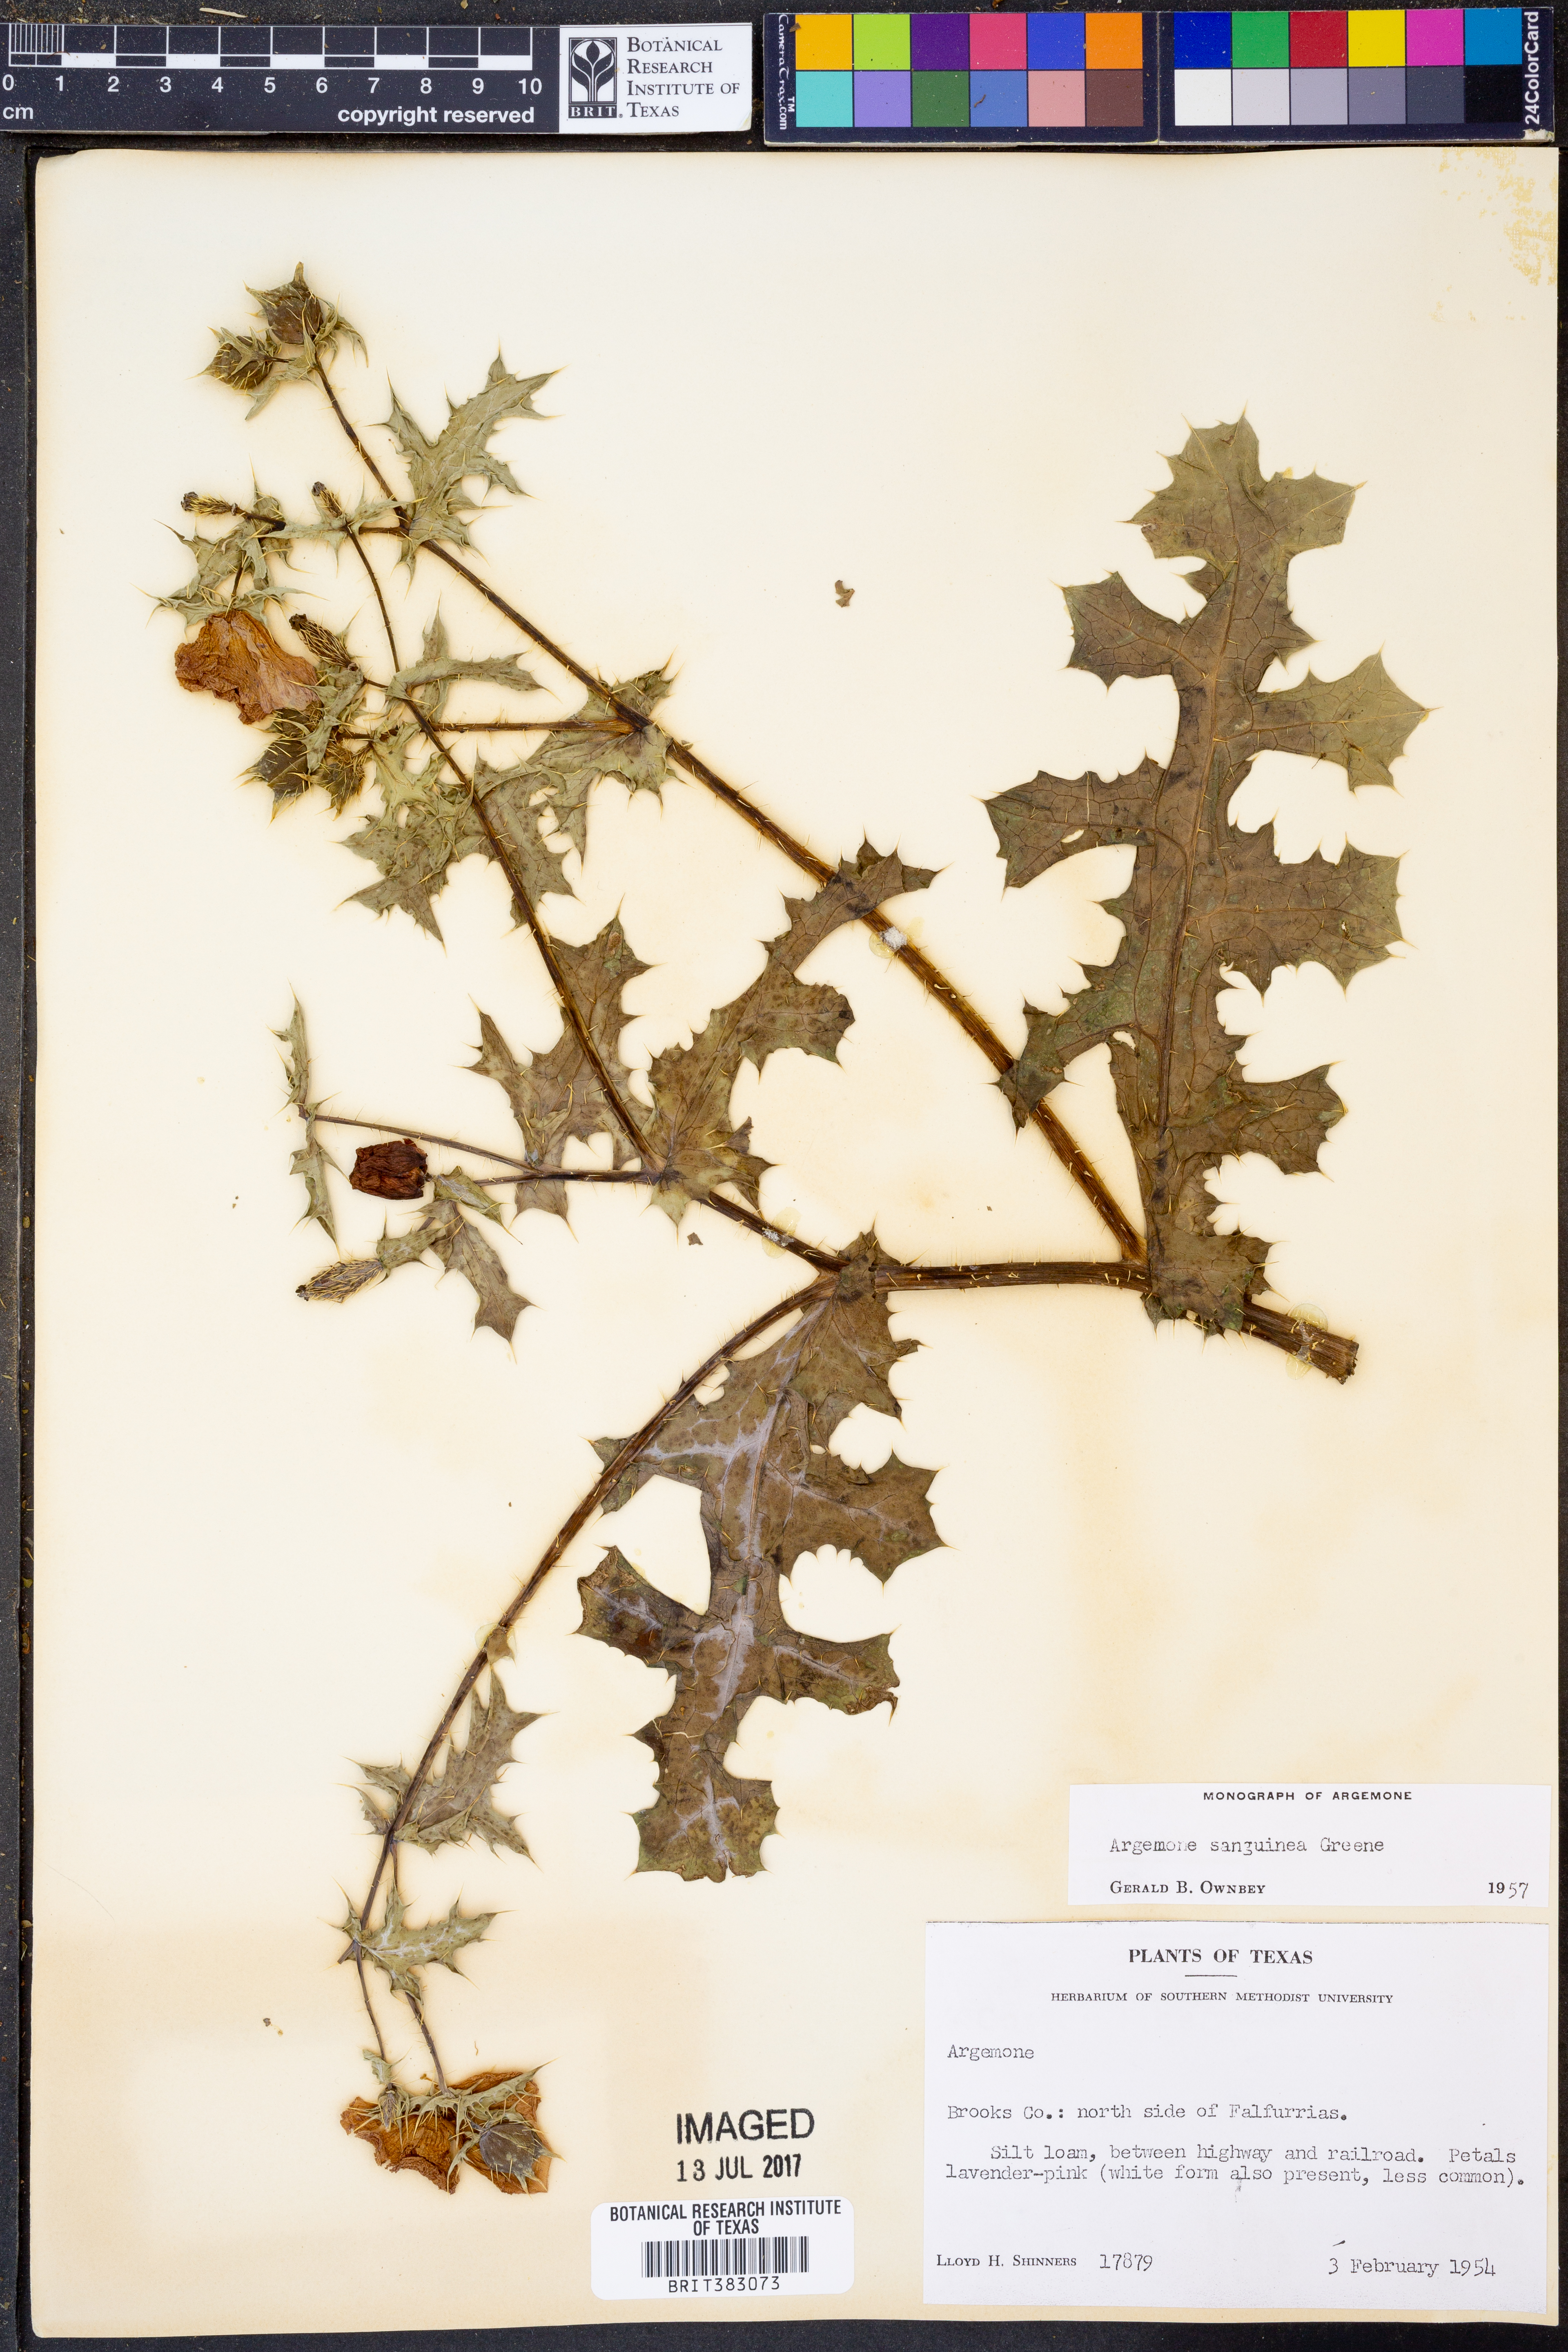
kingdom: Plantae
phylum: Tracheophyta
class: Magnoliopsida
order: Ranunculales
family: Papaveraceae
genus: Argemone
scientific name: Argemone sanguinea
